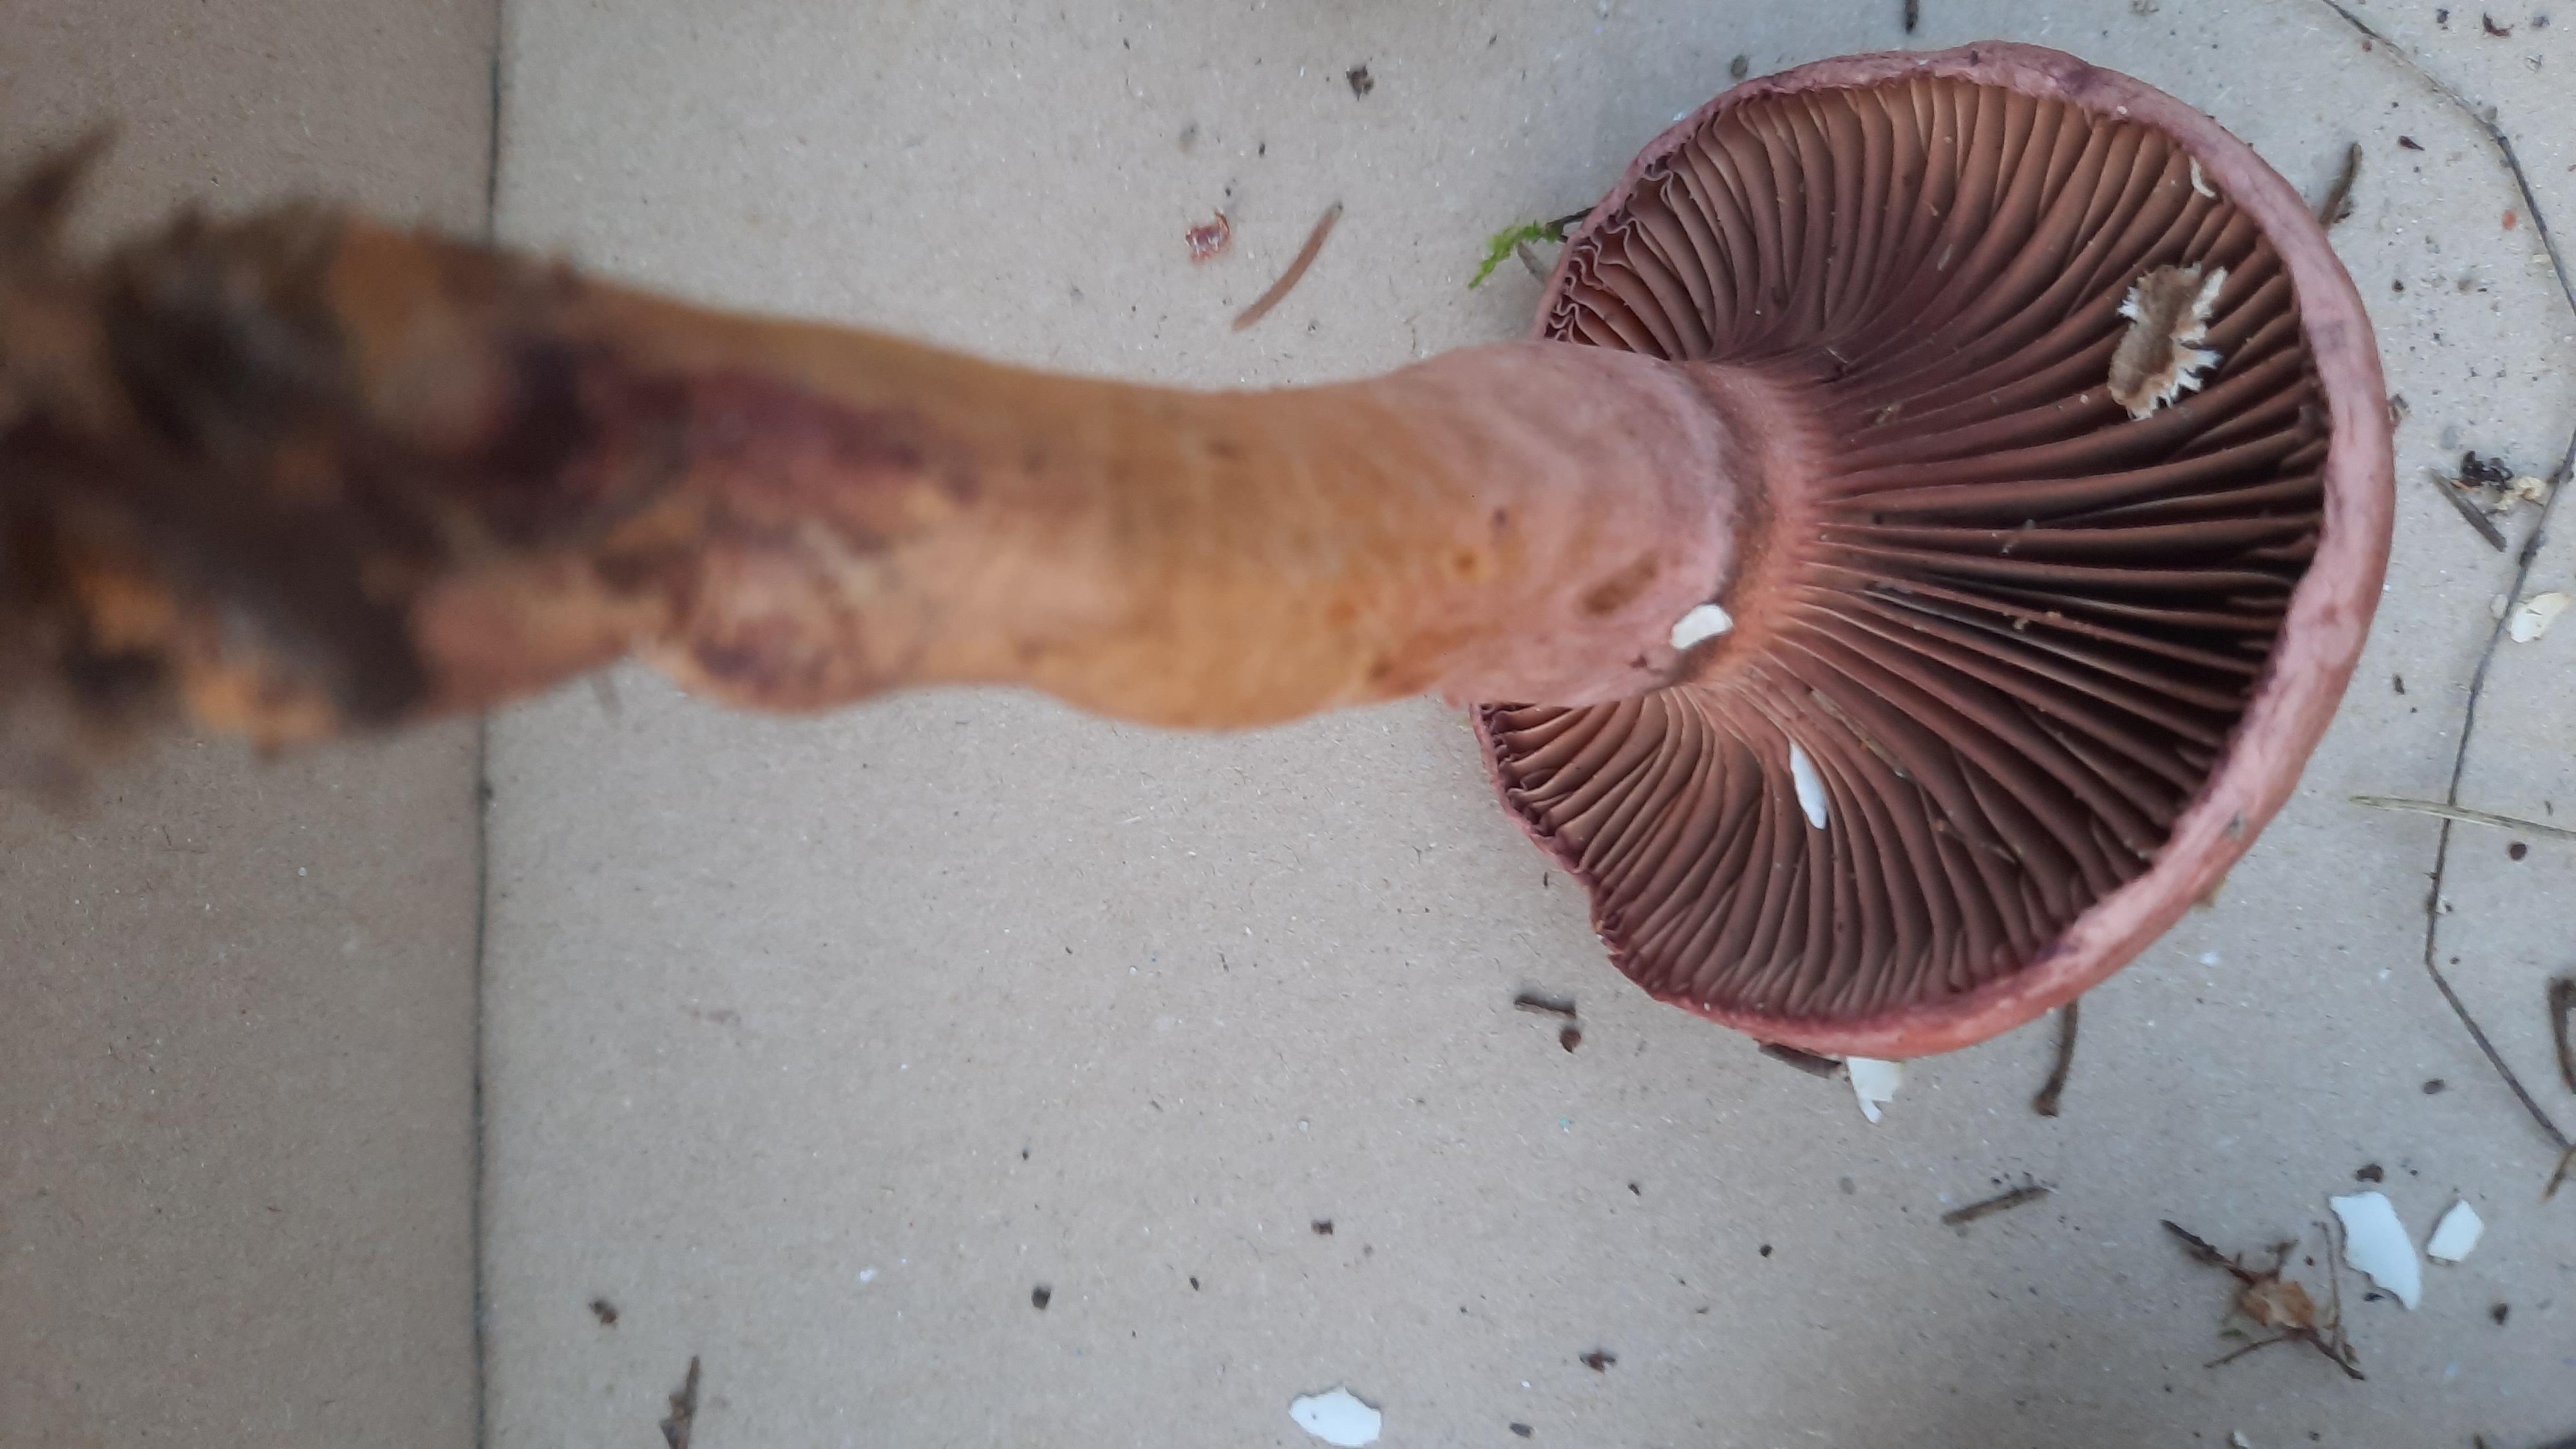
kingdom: Fungi
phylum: Basidiomycota
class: Agaricomycetes
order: Boletales
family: Gomphidiaceae
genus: Chroogomphus
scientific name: Chroogomphus rutilus
